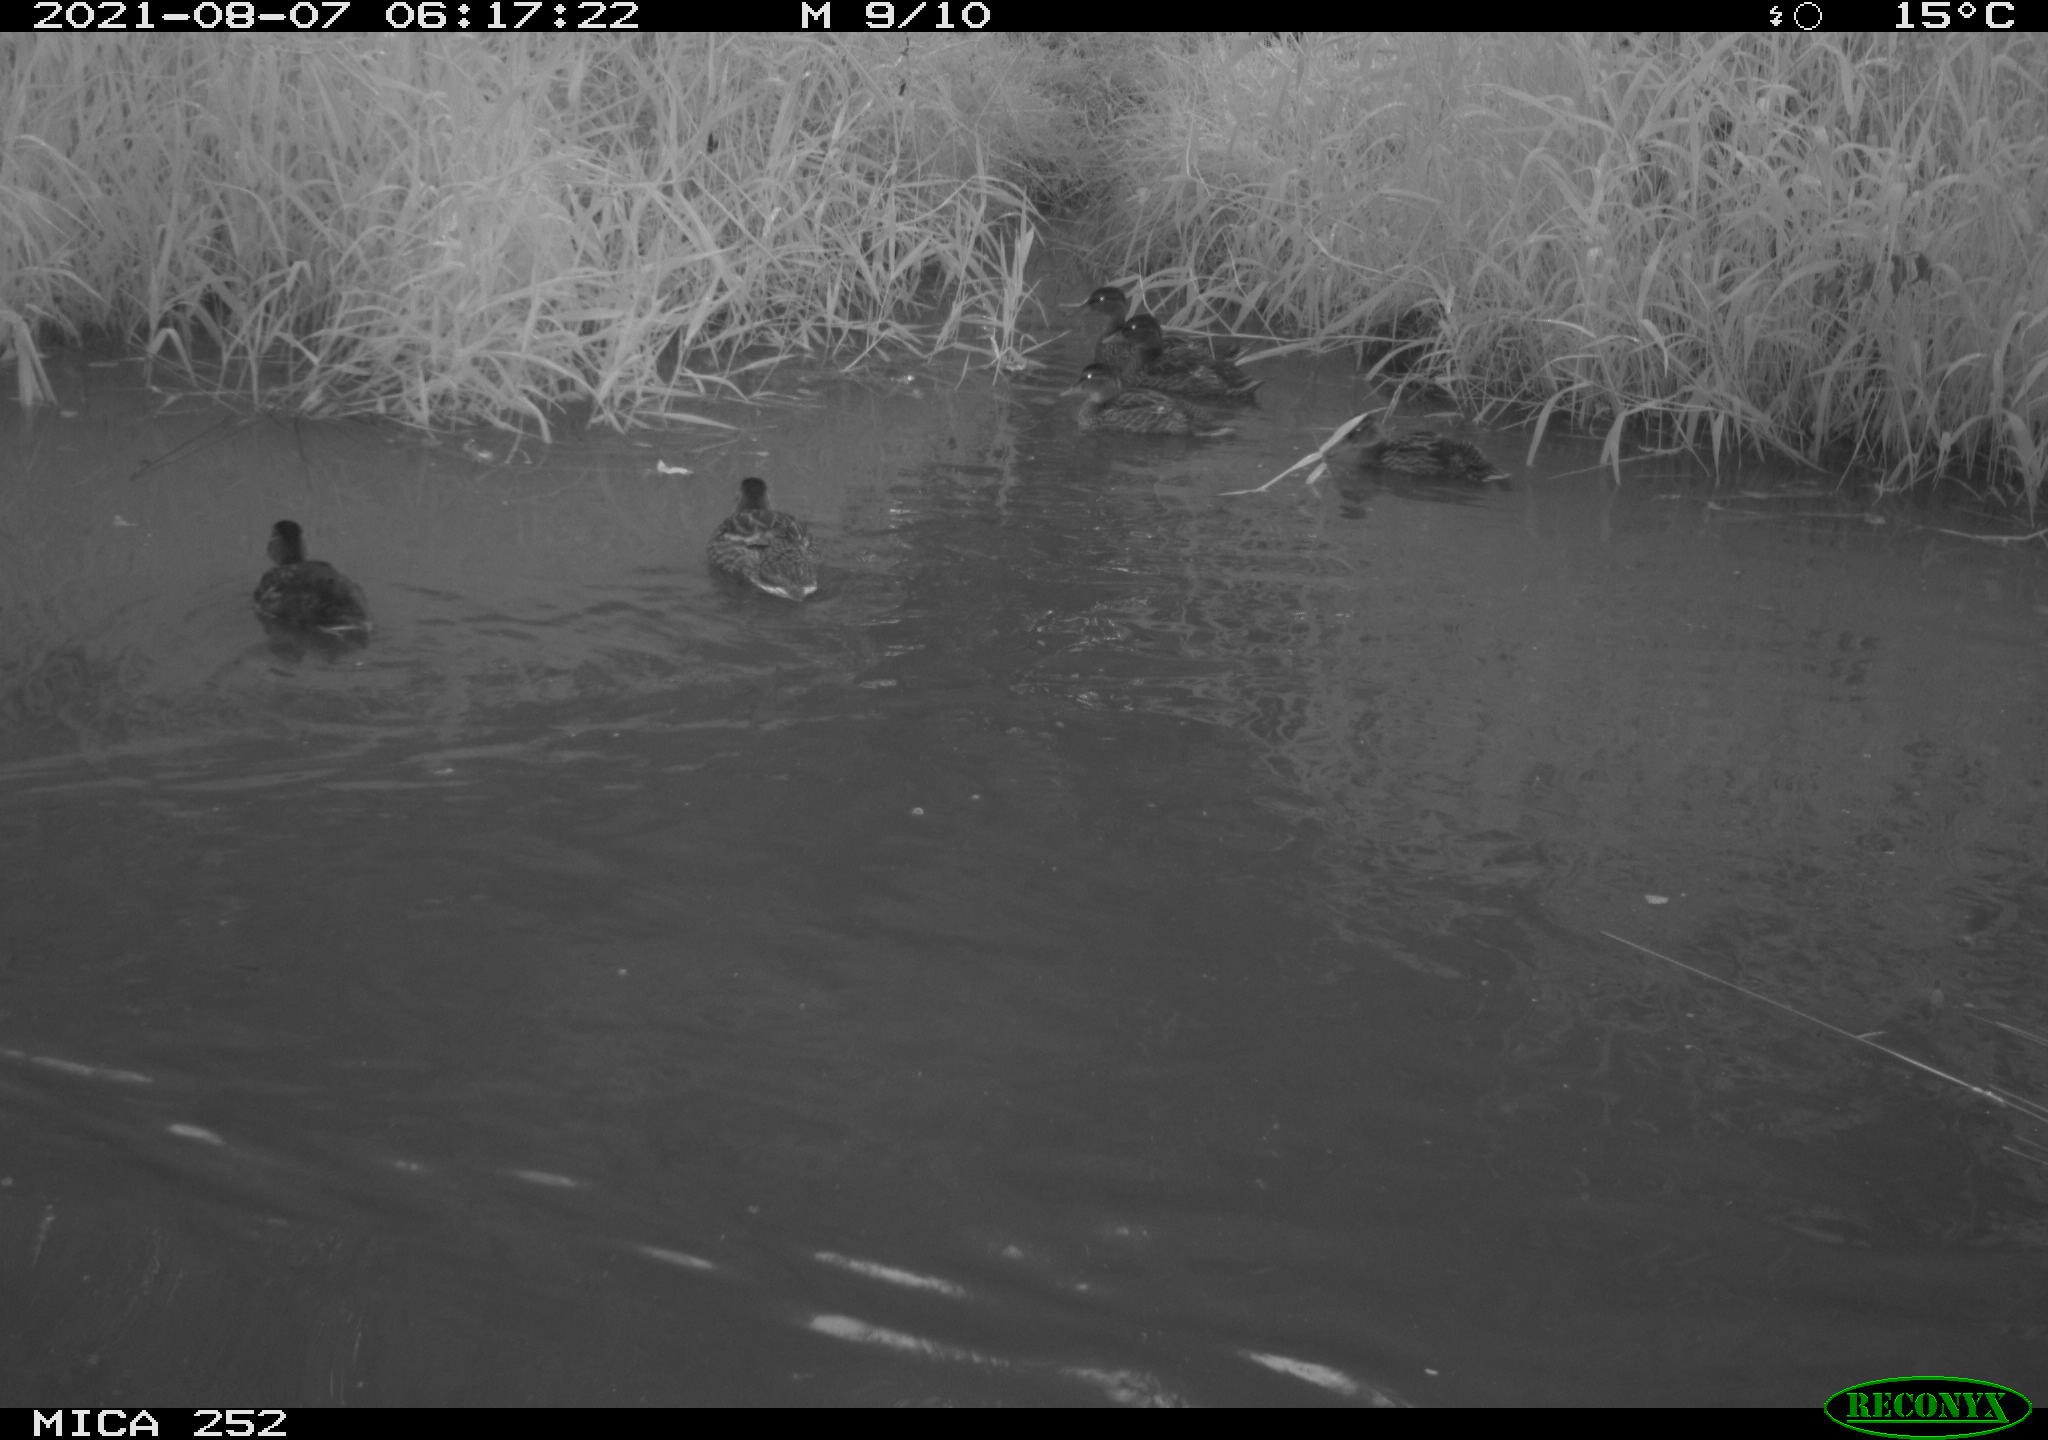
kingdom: Animalia
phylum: Chordata
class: Aves
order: Anseriformes
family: Anatidae
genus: Anas
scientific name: Anas platyrhynchos
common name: Mallard
